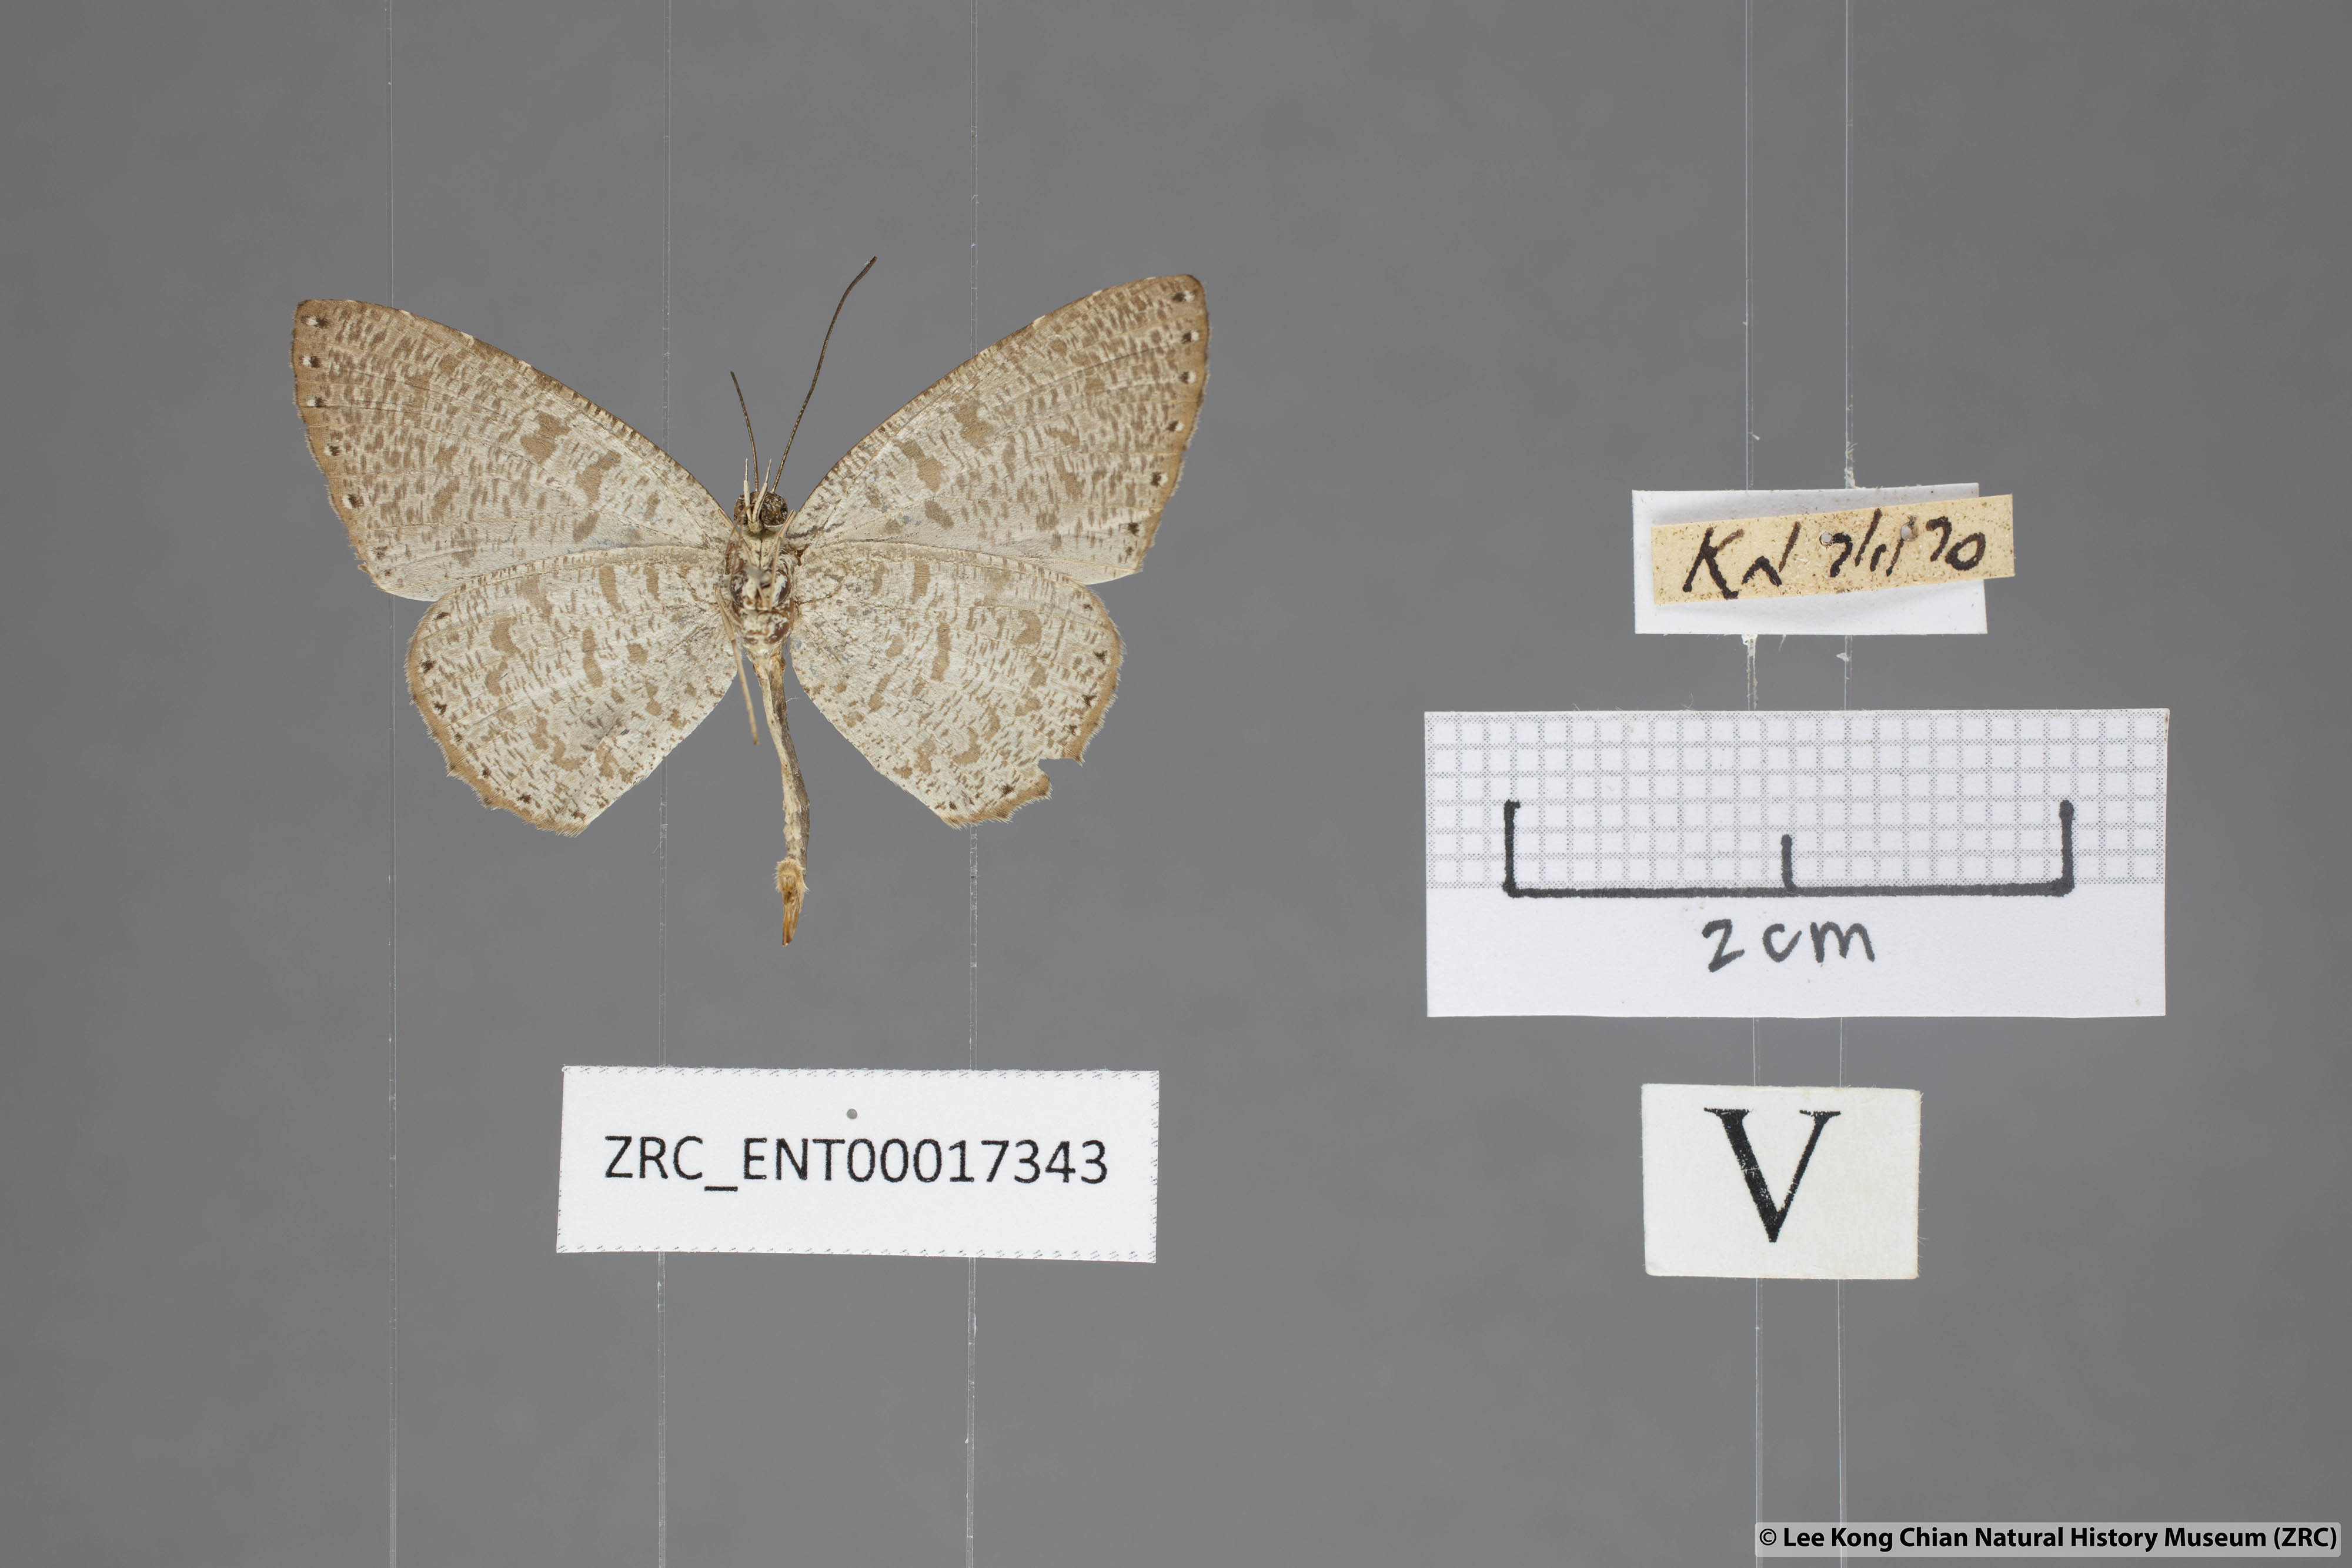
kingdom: Animalia
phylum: Arthropoda
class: Insecta
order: Lepidoptera
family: Lycaenidae
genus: Allotinus
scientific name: Allotinus sarastes
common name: Peninsular darkie
